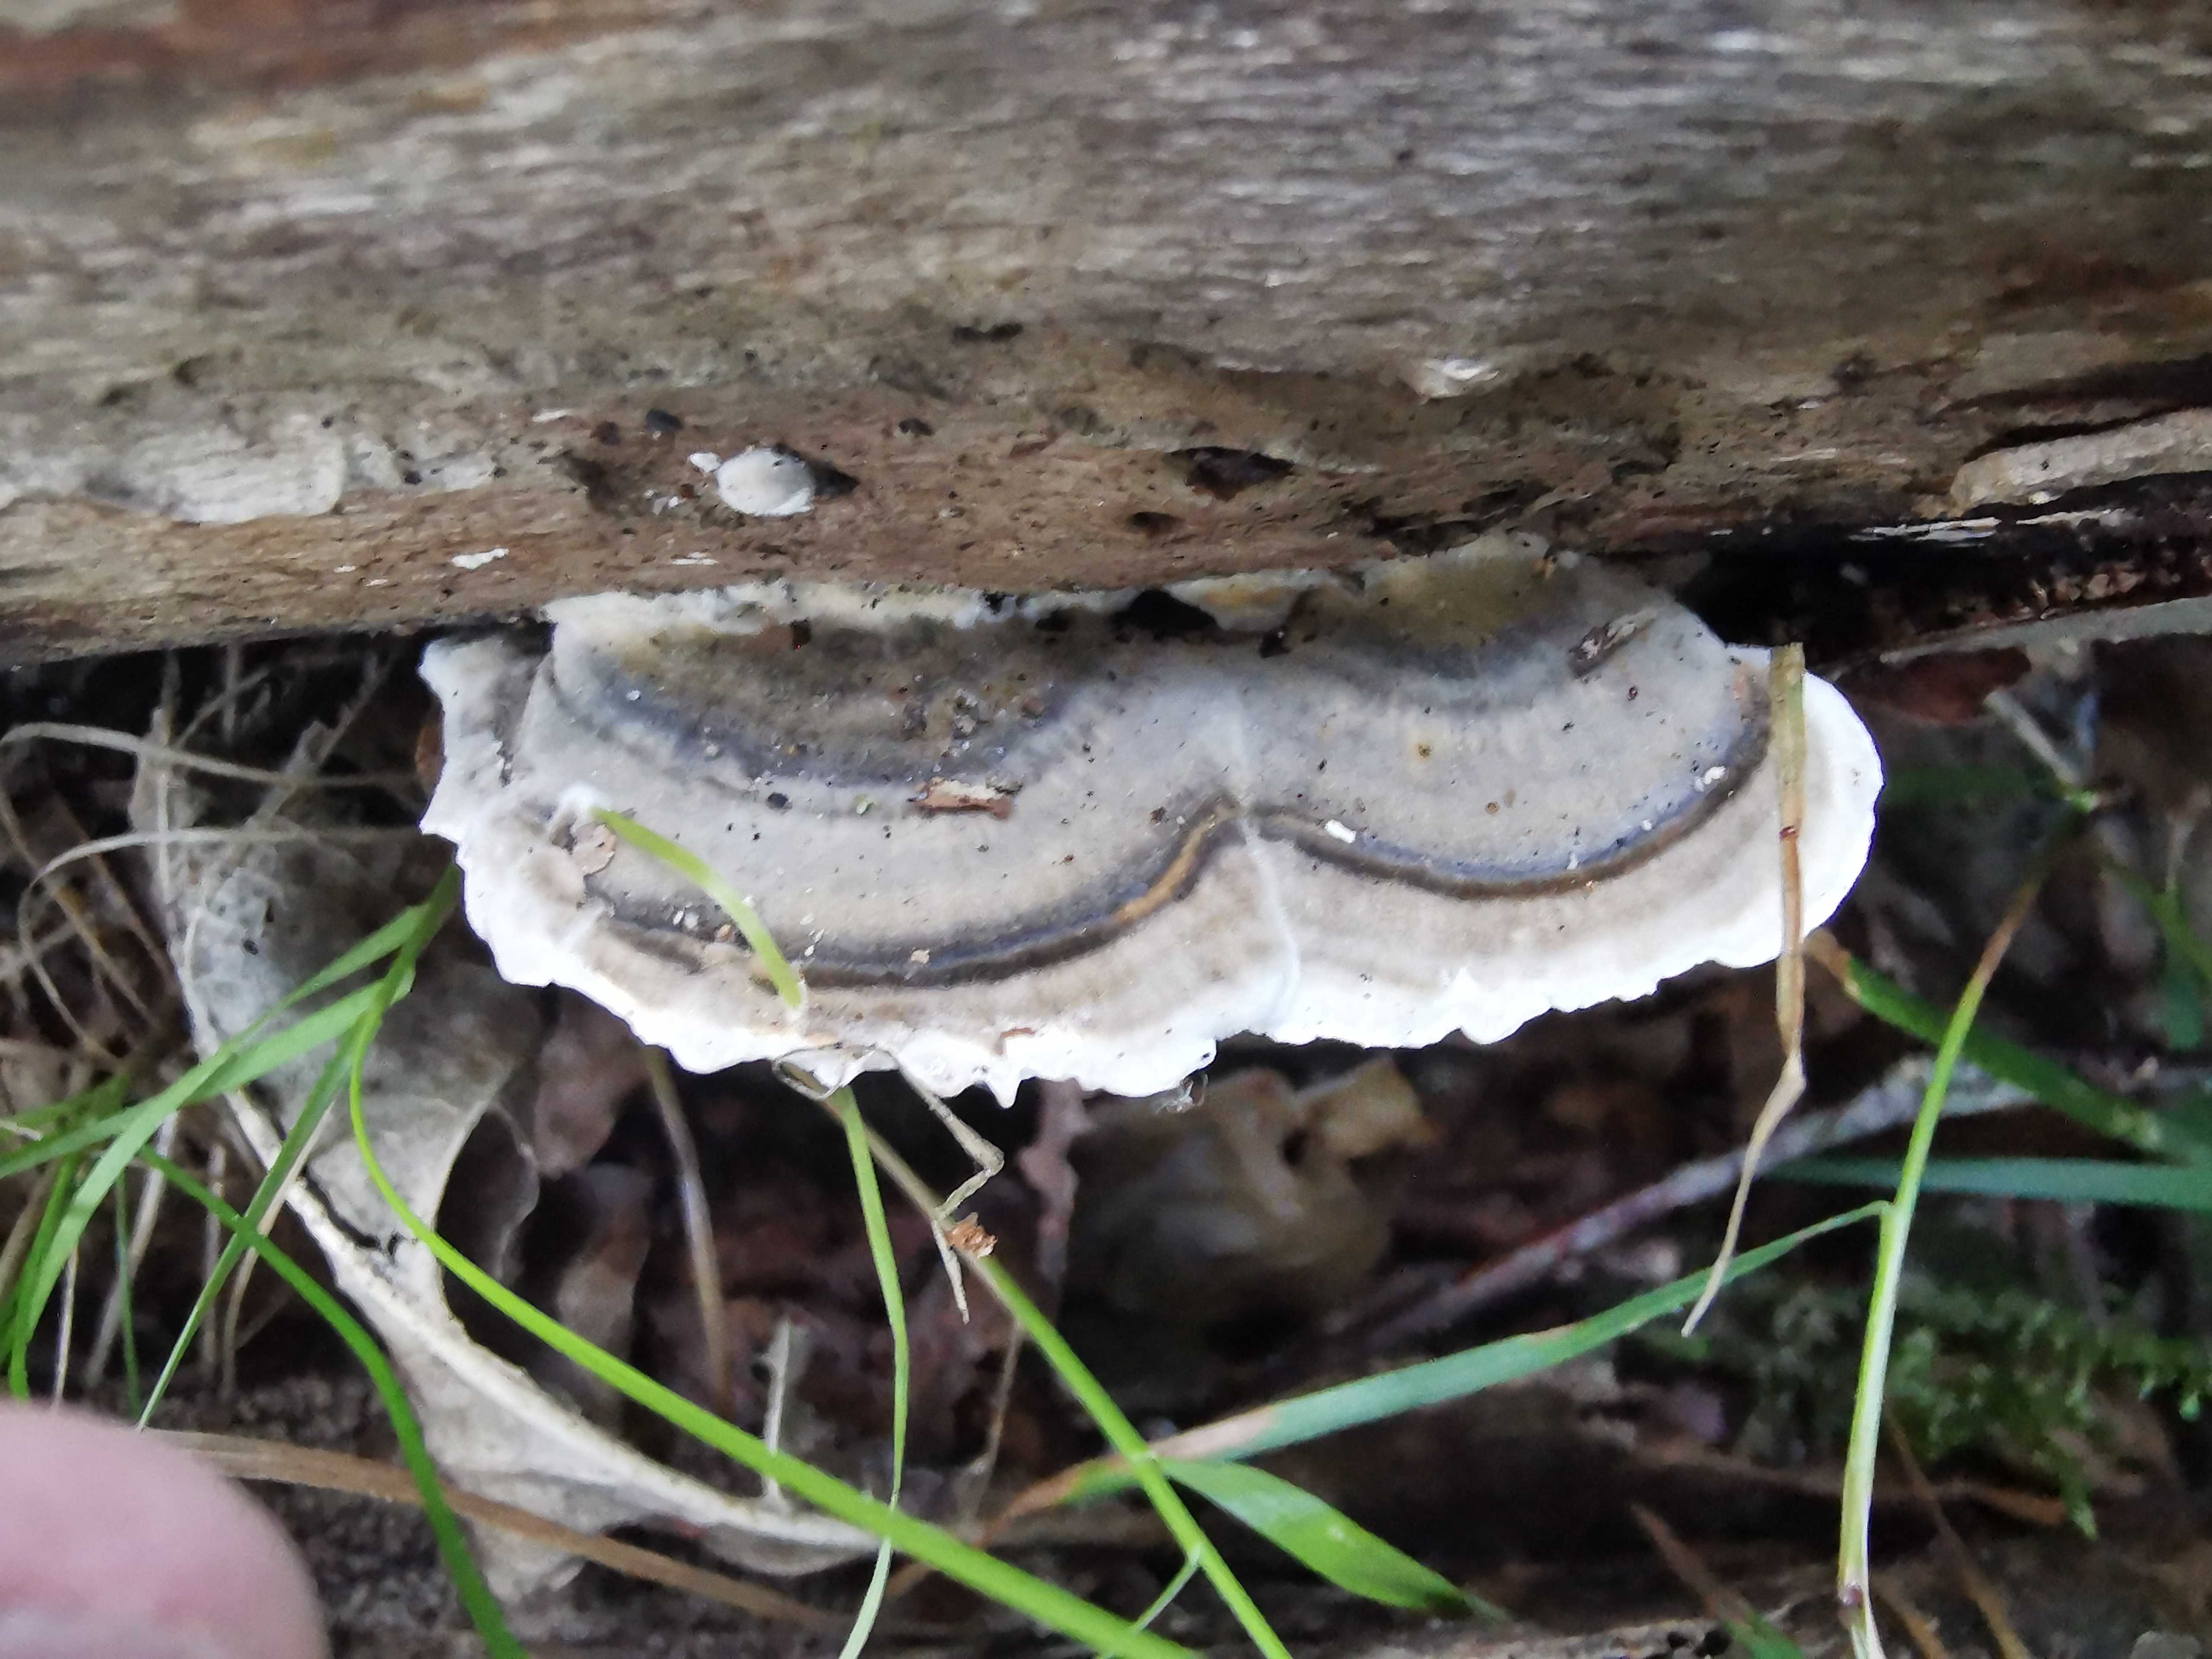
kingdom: Fungi
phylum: Basidiomycota
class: Agaricomycetes
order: Polyporales
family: Polyporaceae
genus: Trametes
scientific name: Trametes versicolor
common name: broget læderporesvamp
